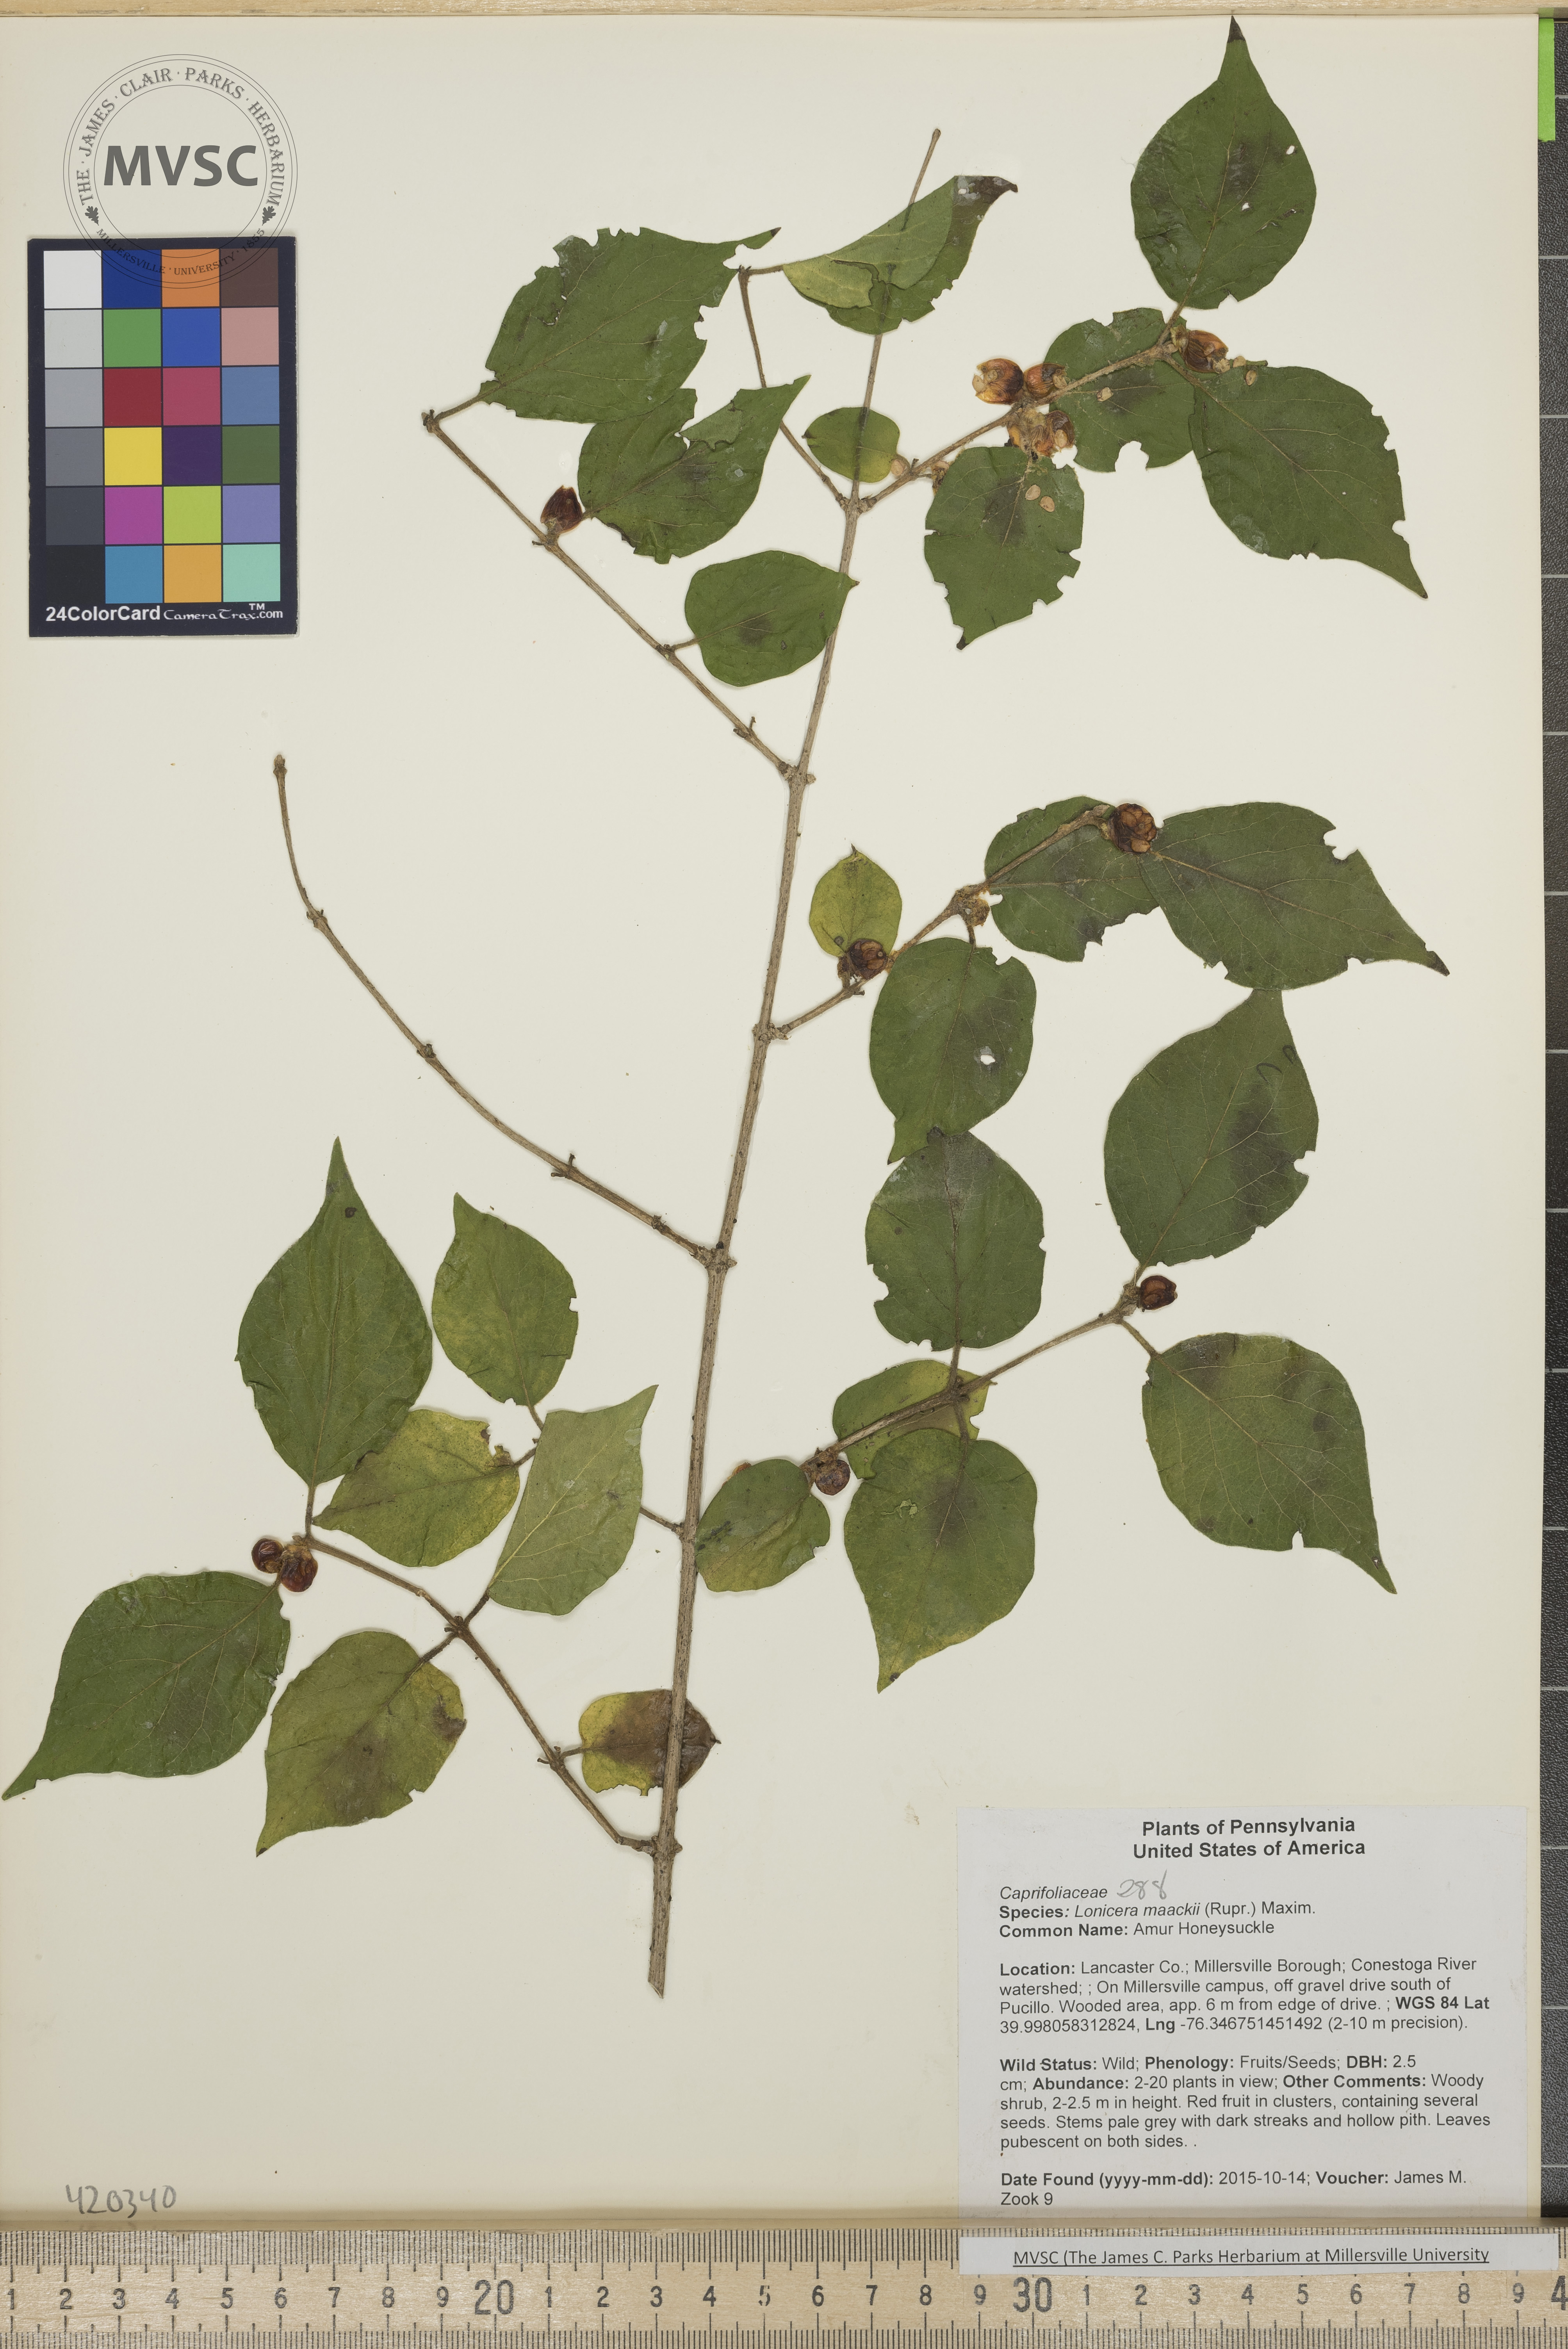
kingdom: Plantae
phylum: Tracheophyta
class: Magnoliopsida
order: Dipsacales
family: Caprifoliaceae
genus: Lonicera
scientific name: Lonicera maackii
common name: Amur Honeysuckle
